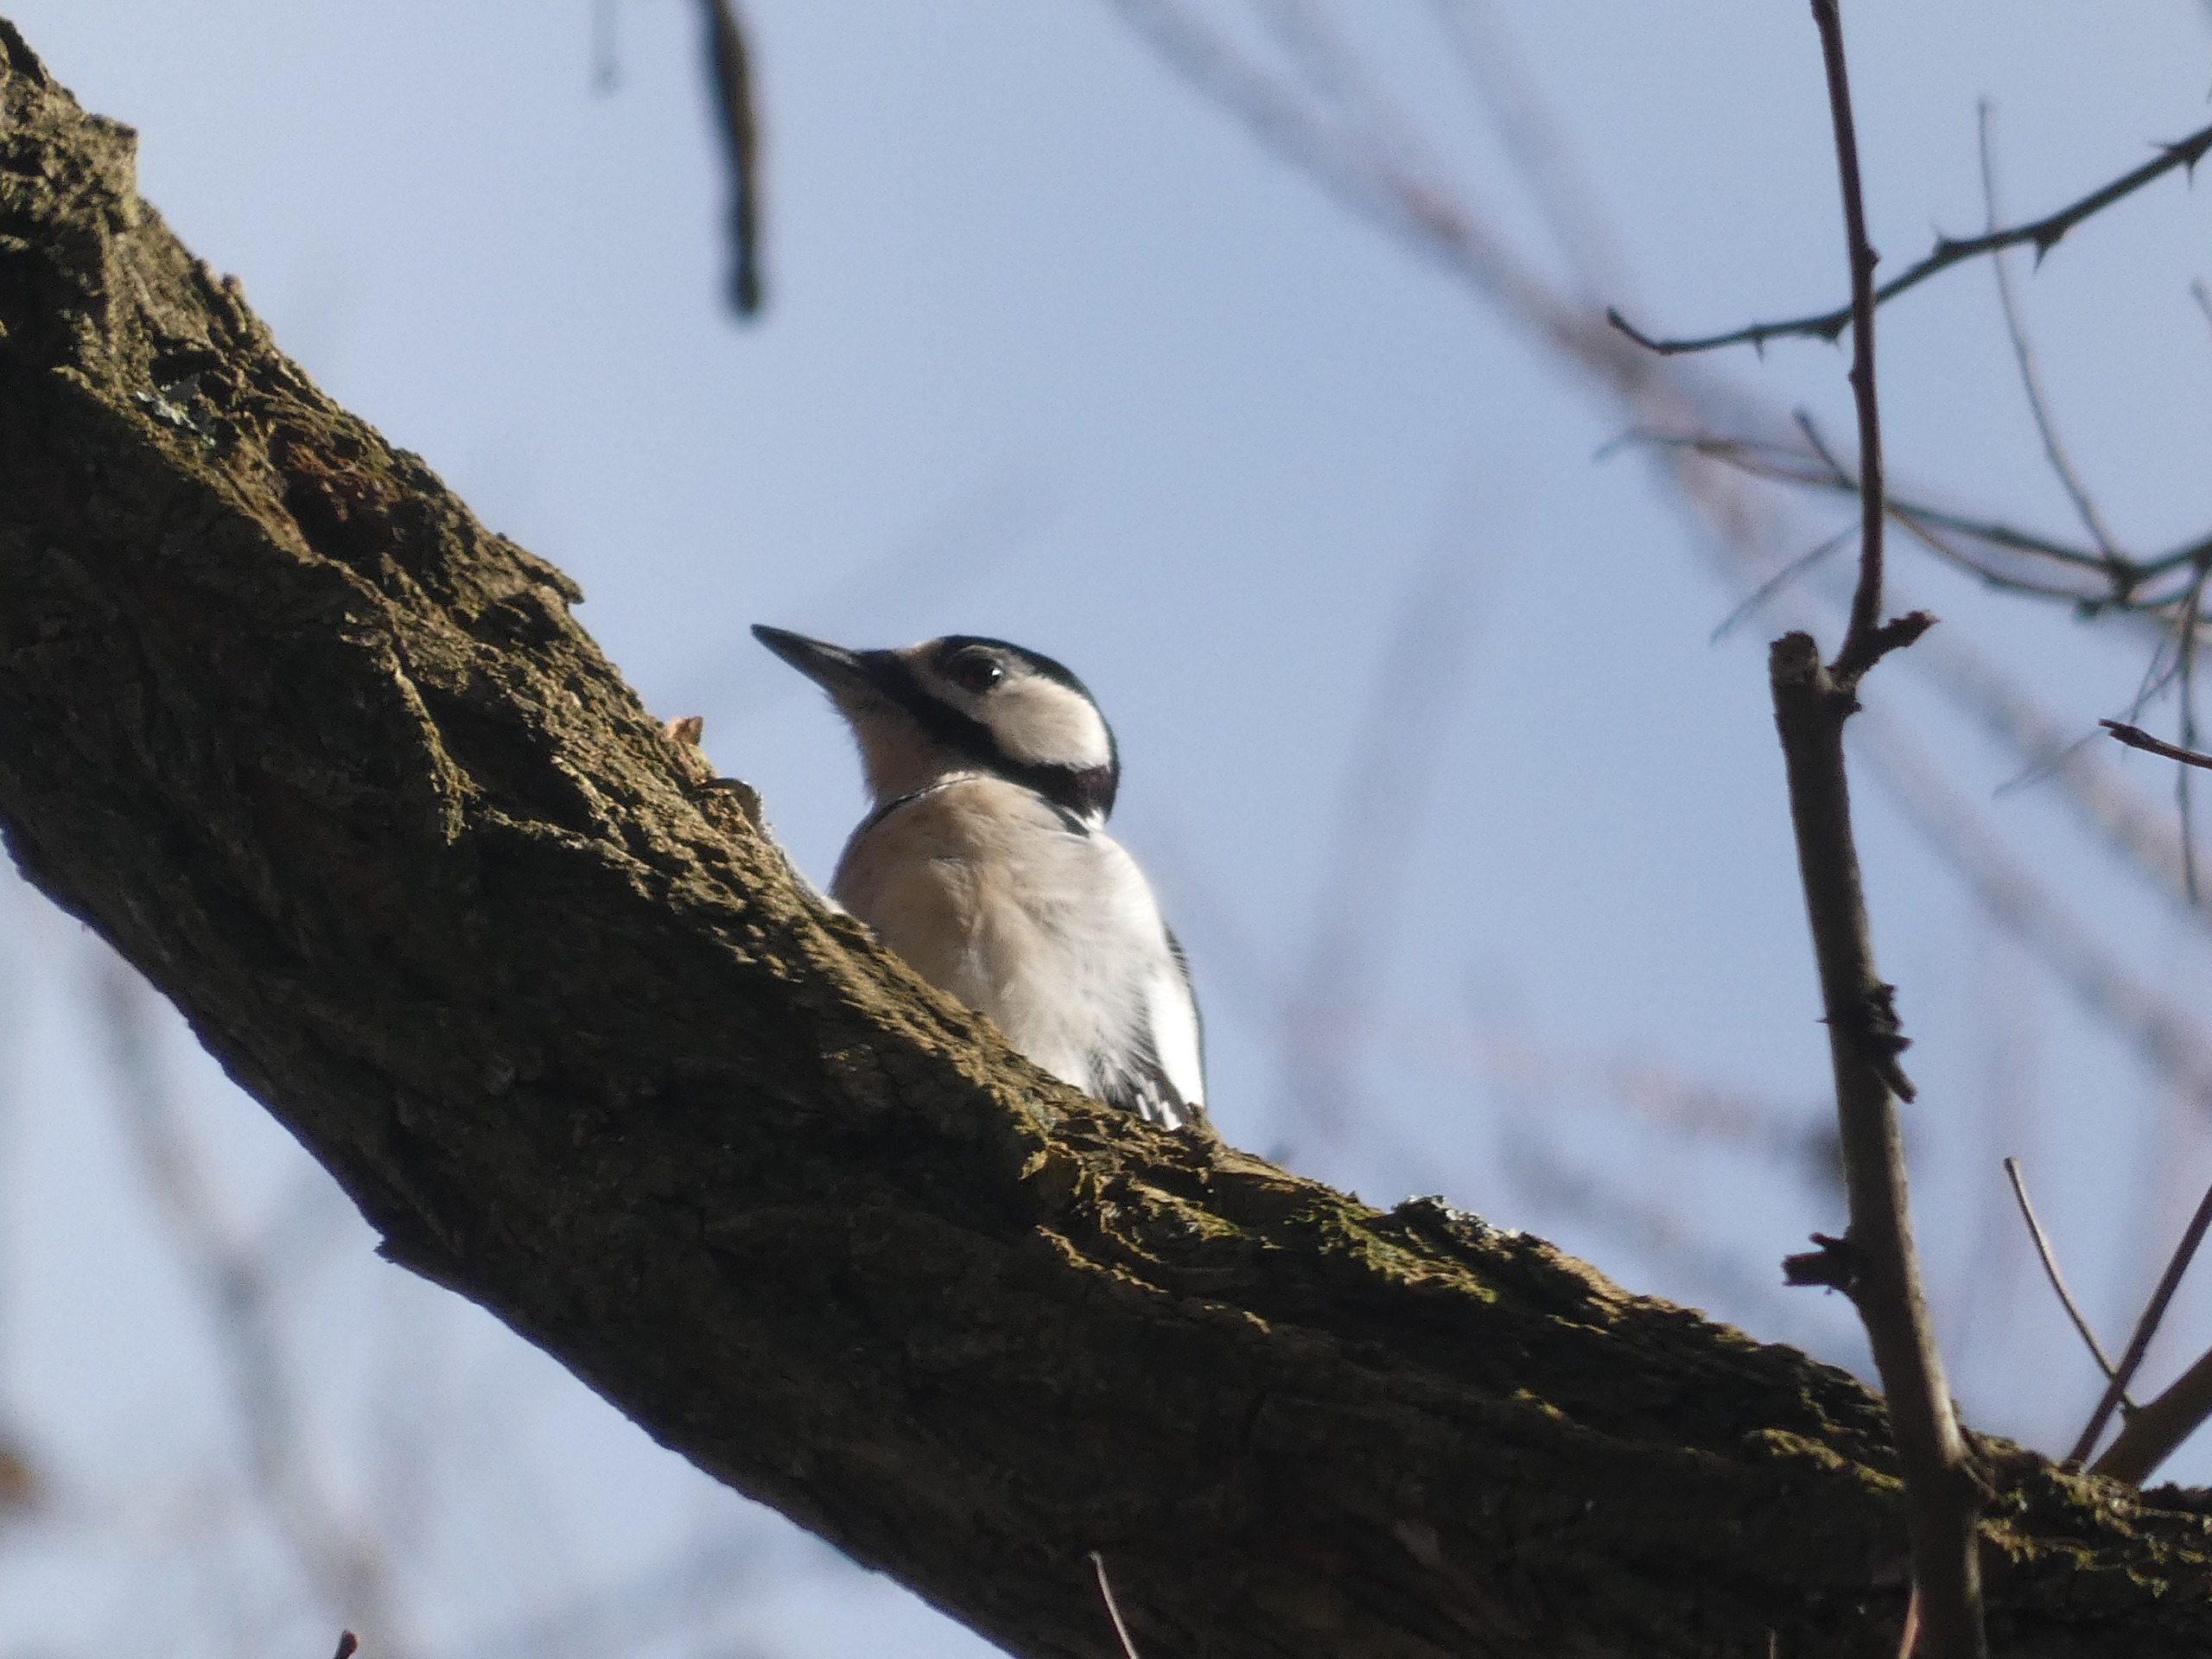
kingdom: Animalia
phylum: Chordata
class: Aves
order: Piciformes
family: Picidae
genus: Dendrocopos
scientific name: Dendrocopos major
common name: Stor flagspætte
